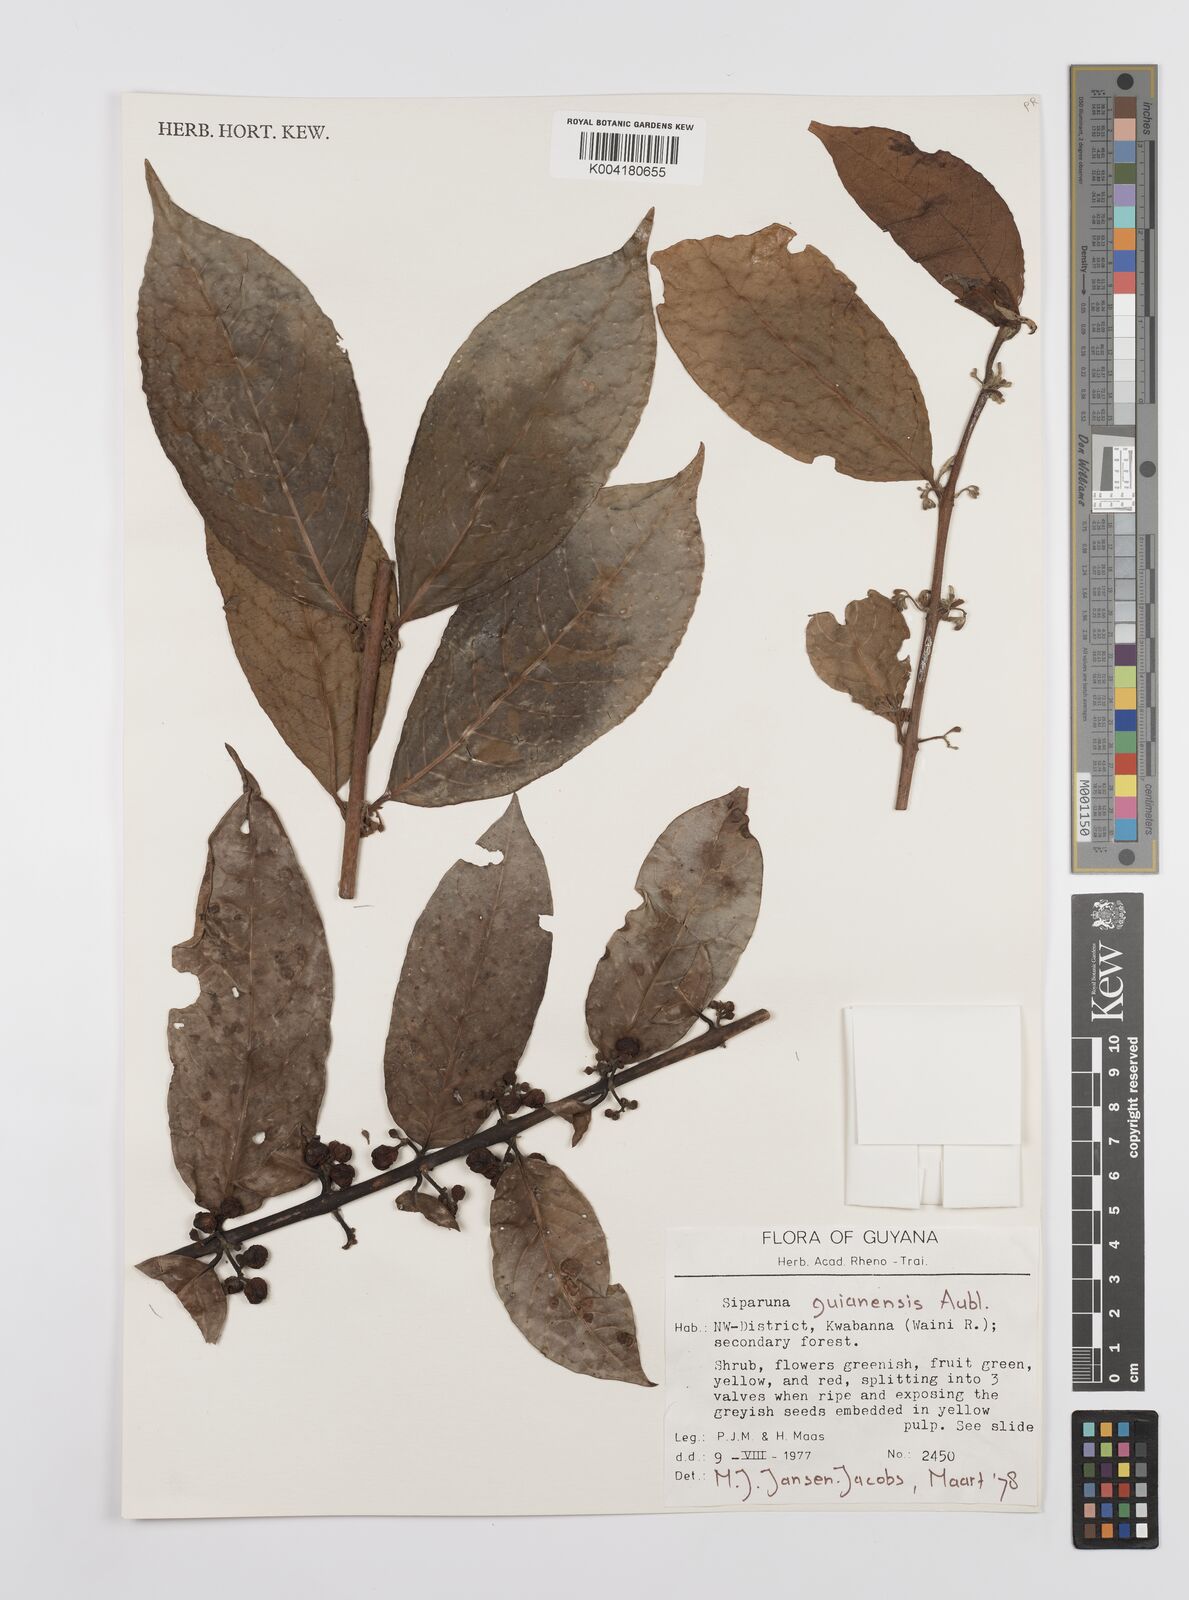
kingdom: Plantae
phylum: Tracheophyta
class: Magnoliopsida
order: Laurales
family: Siparunaceae
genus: Siparuna
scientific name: Siparuna guianensis
